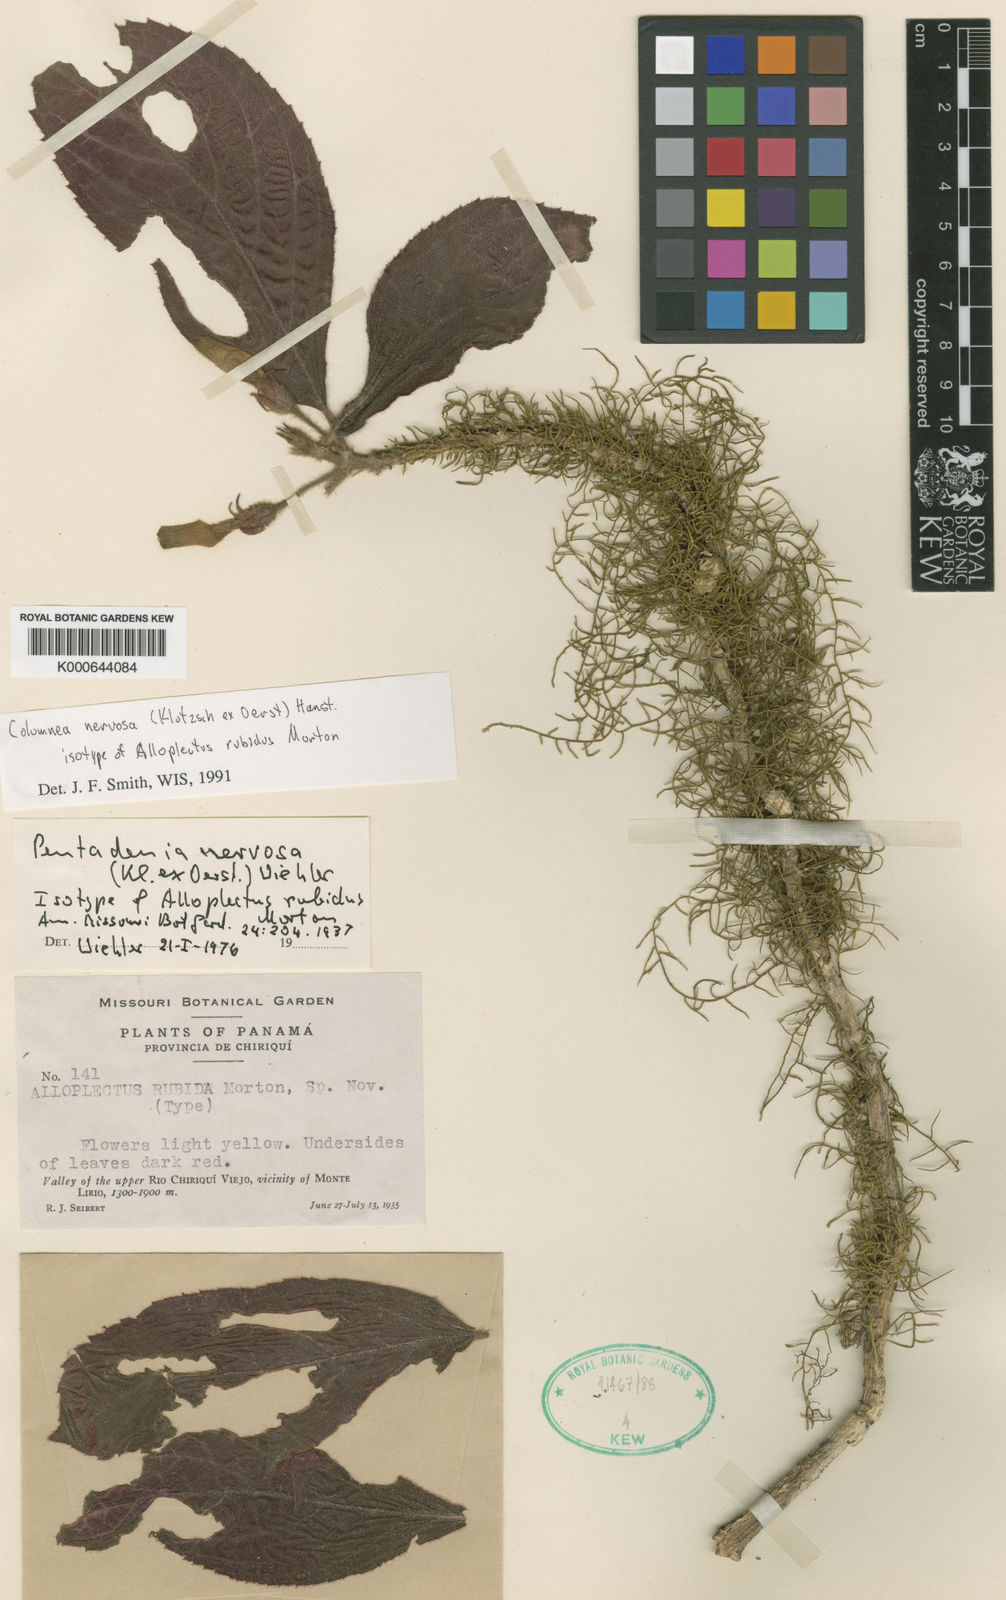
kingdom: Plantae
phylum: Tracheophyta
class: Magnoliopsida
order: Lamiales
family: Gesneriaceae
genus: Columnea
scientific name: Columnea nervosa
